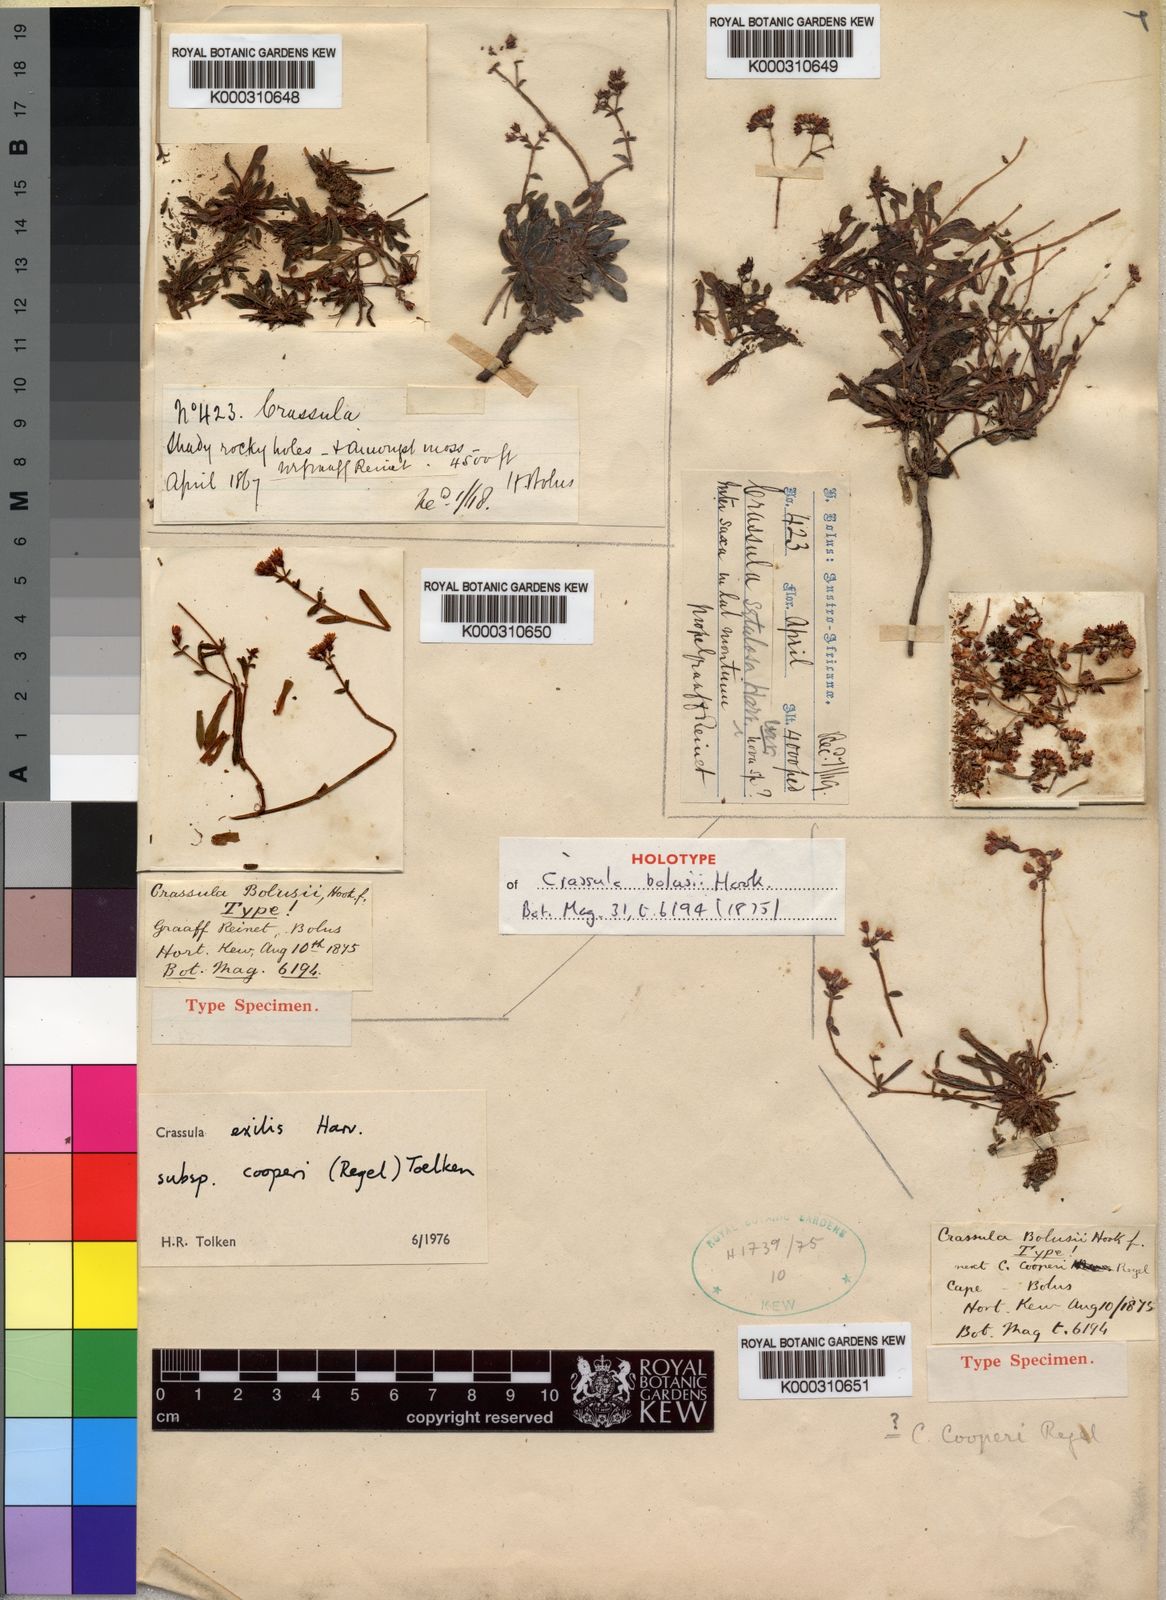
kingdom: Plantae
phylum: Tracheophyta
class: Magnoliopsida
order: Saxifragales
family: Crassulaceae
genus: Crassula
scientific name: Crassula cooperi
